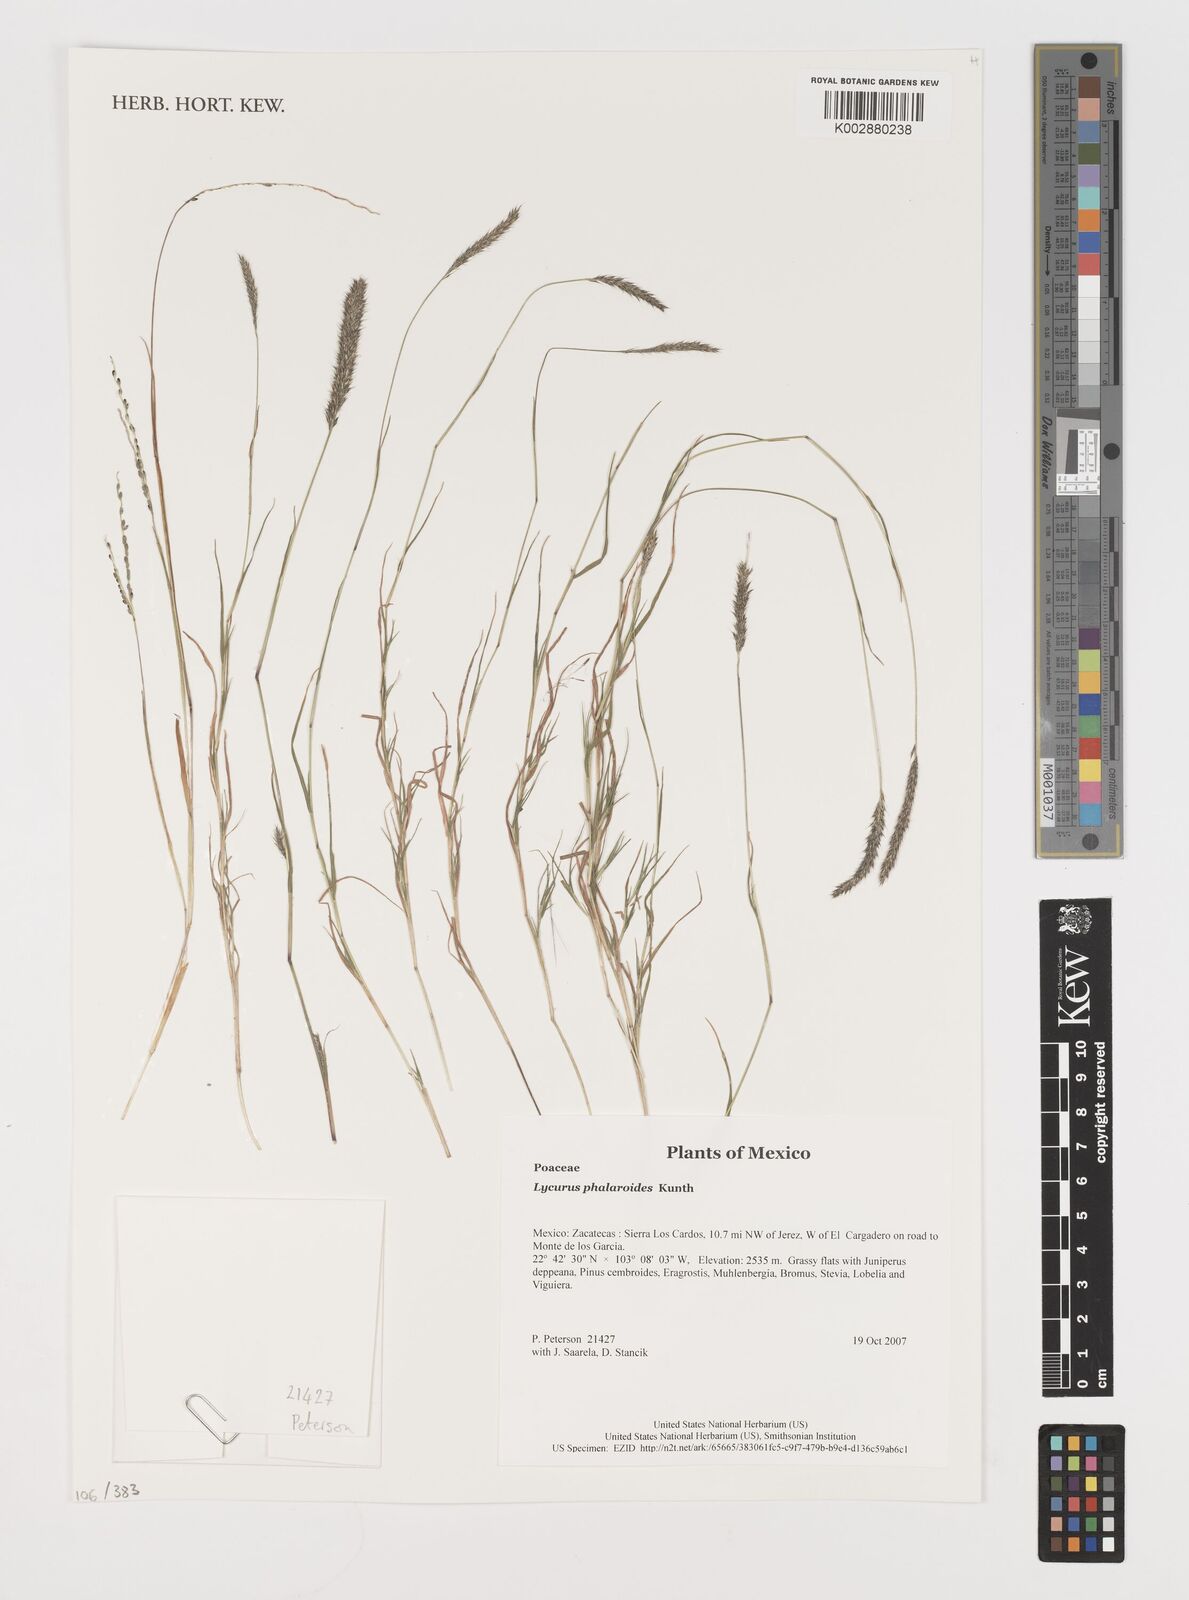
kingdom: Plantae
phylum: Tracheophyta
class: Liliopsida
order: Poales
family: Poaceae
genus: Muhlenbergia
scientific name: Muhlenbergia phalaroides
